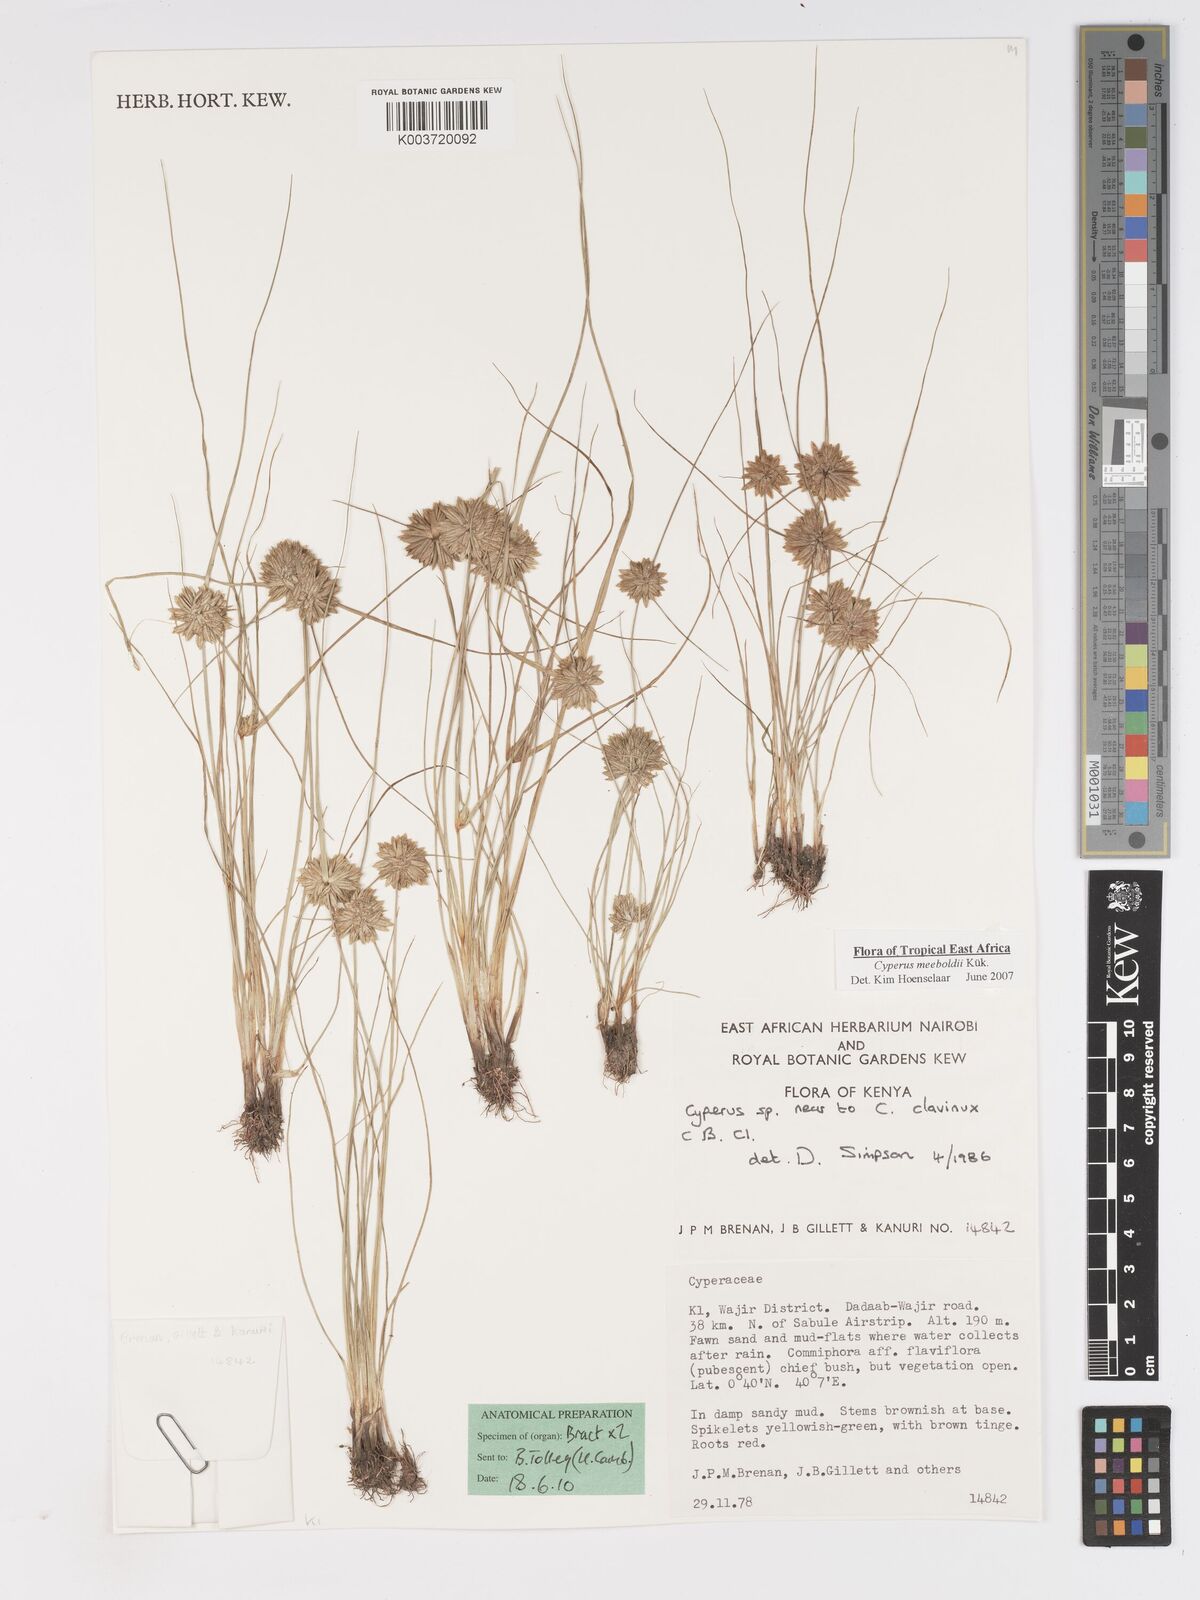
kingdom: Plantae
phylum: Tracheophyta
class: Liliopsida
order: Poales
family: Cyperaceae
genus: Cyperus
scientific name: Cyperus meeboldii
